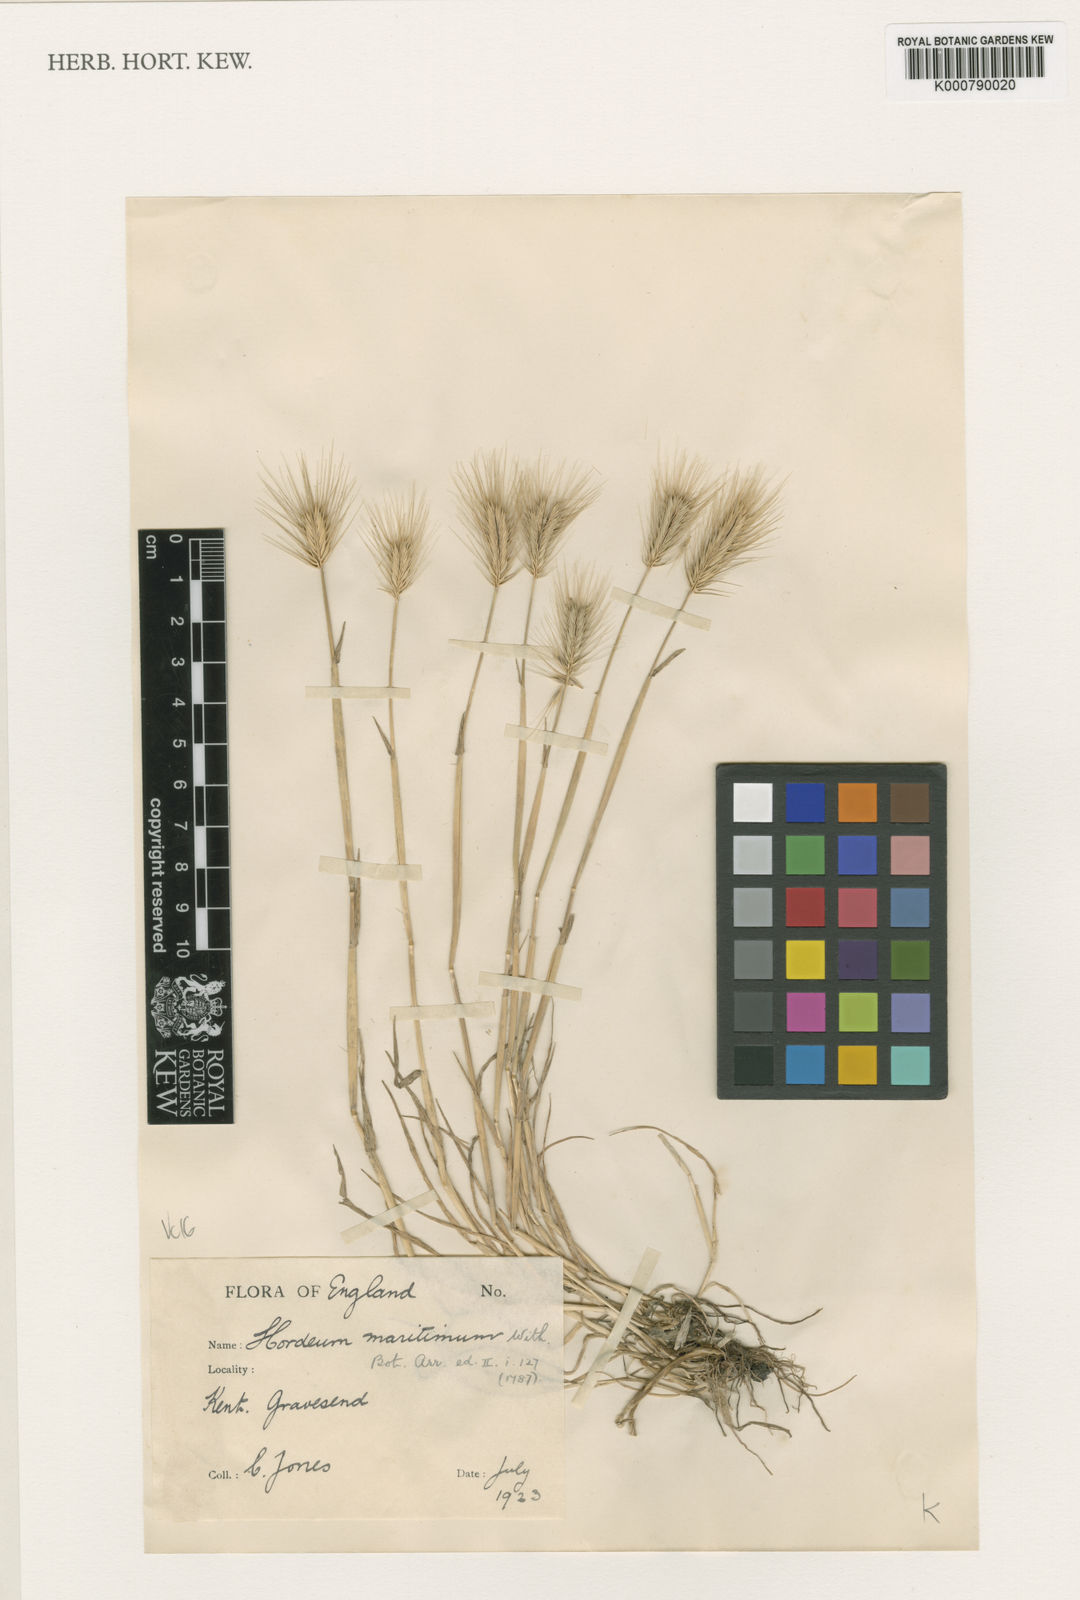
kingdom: Plantae
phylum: Tracheophyta
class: Liliopsida
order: Poales
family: Poaceae
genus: Hordeum
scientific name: Hordeum marinum
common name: Sea barley
